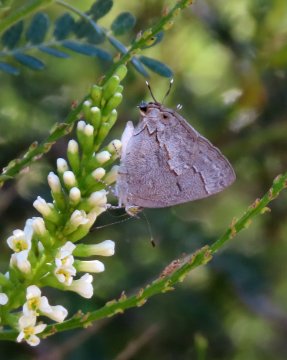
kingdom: Animalia
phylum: Arthropoda
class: Insecta
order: Lepidoptera
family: Lycaenidae
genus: Ministrymon
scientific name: Ministrymon leda
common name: Leda Ministreak
